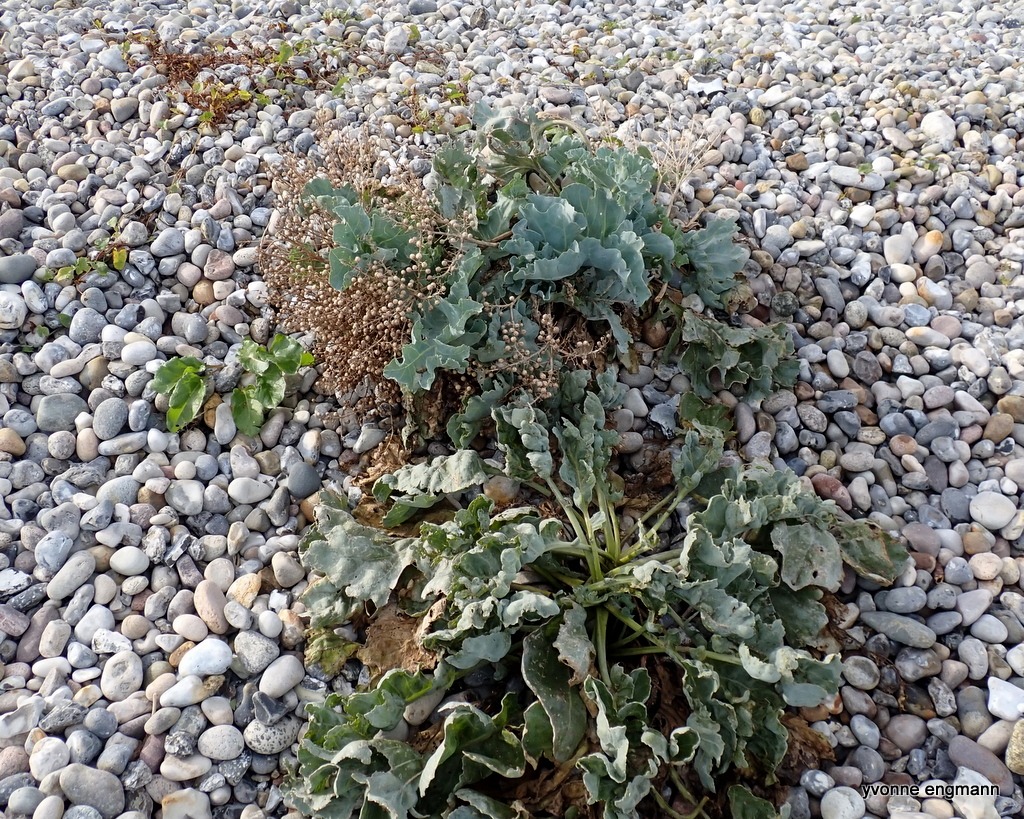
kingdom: Plantae
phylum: Tracheophyta
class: Magnoliopsida
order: Brassicales
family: Brassicaceae
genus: Crambe
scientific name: Crambe maritima
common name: Strandkål
